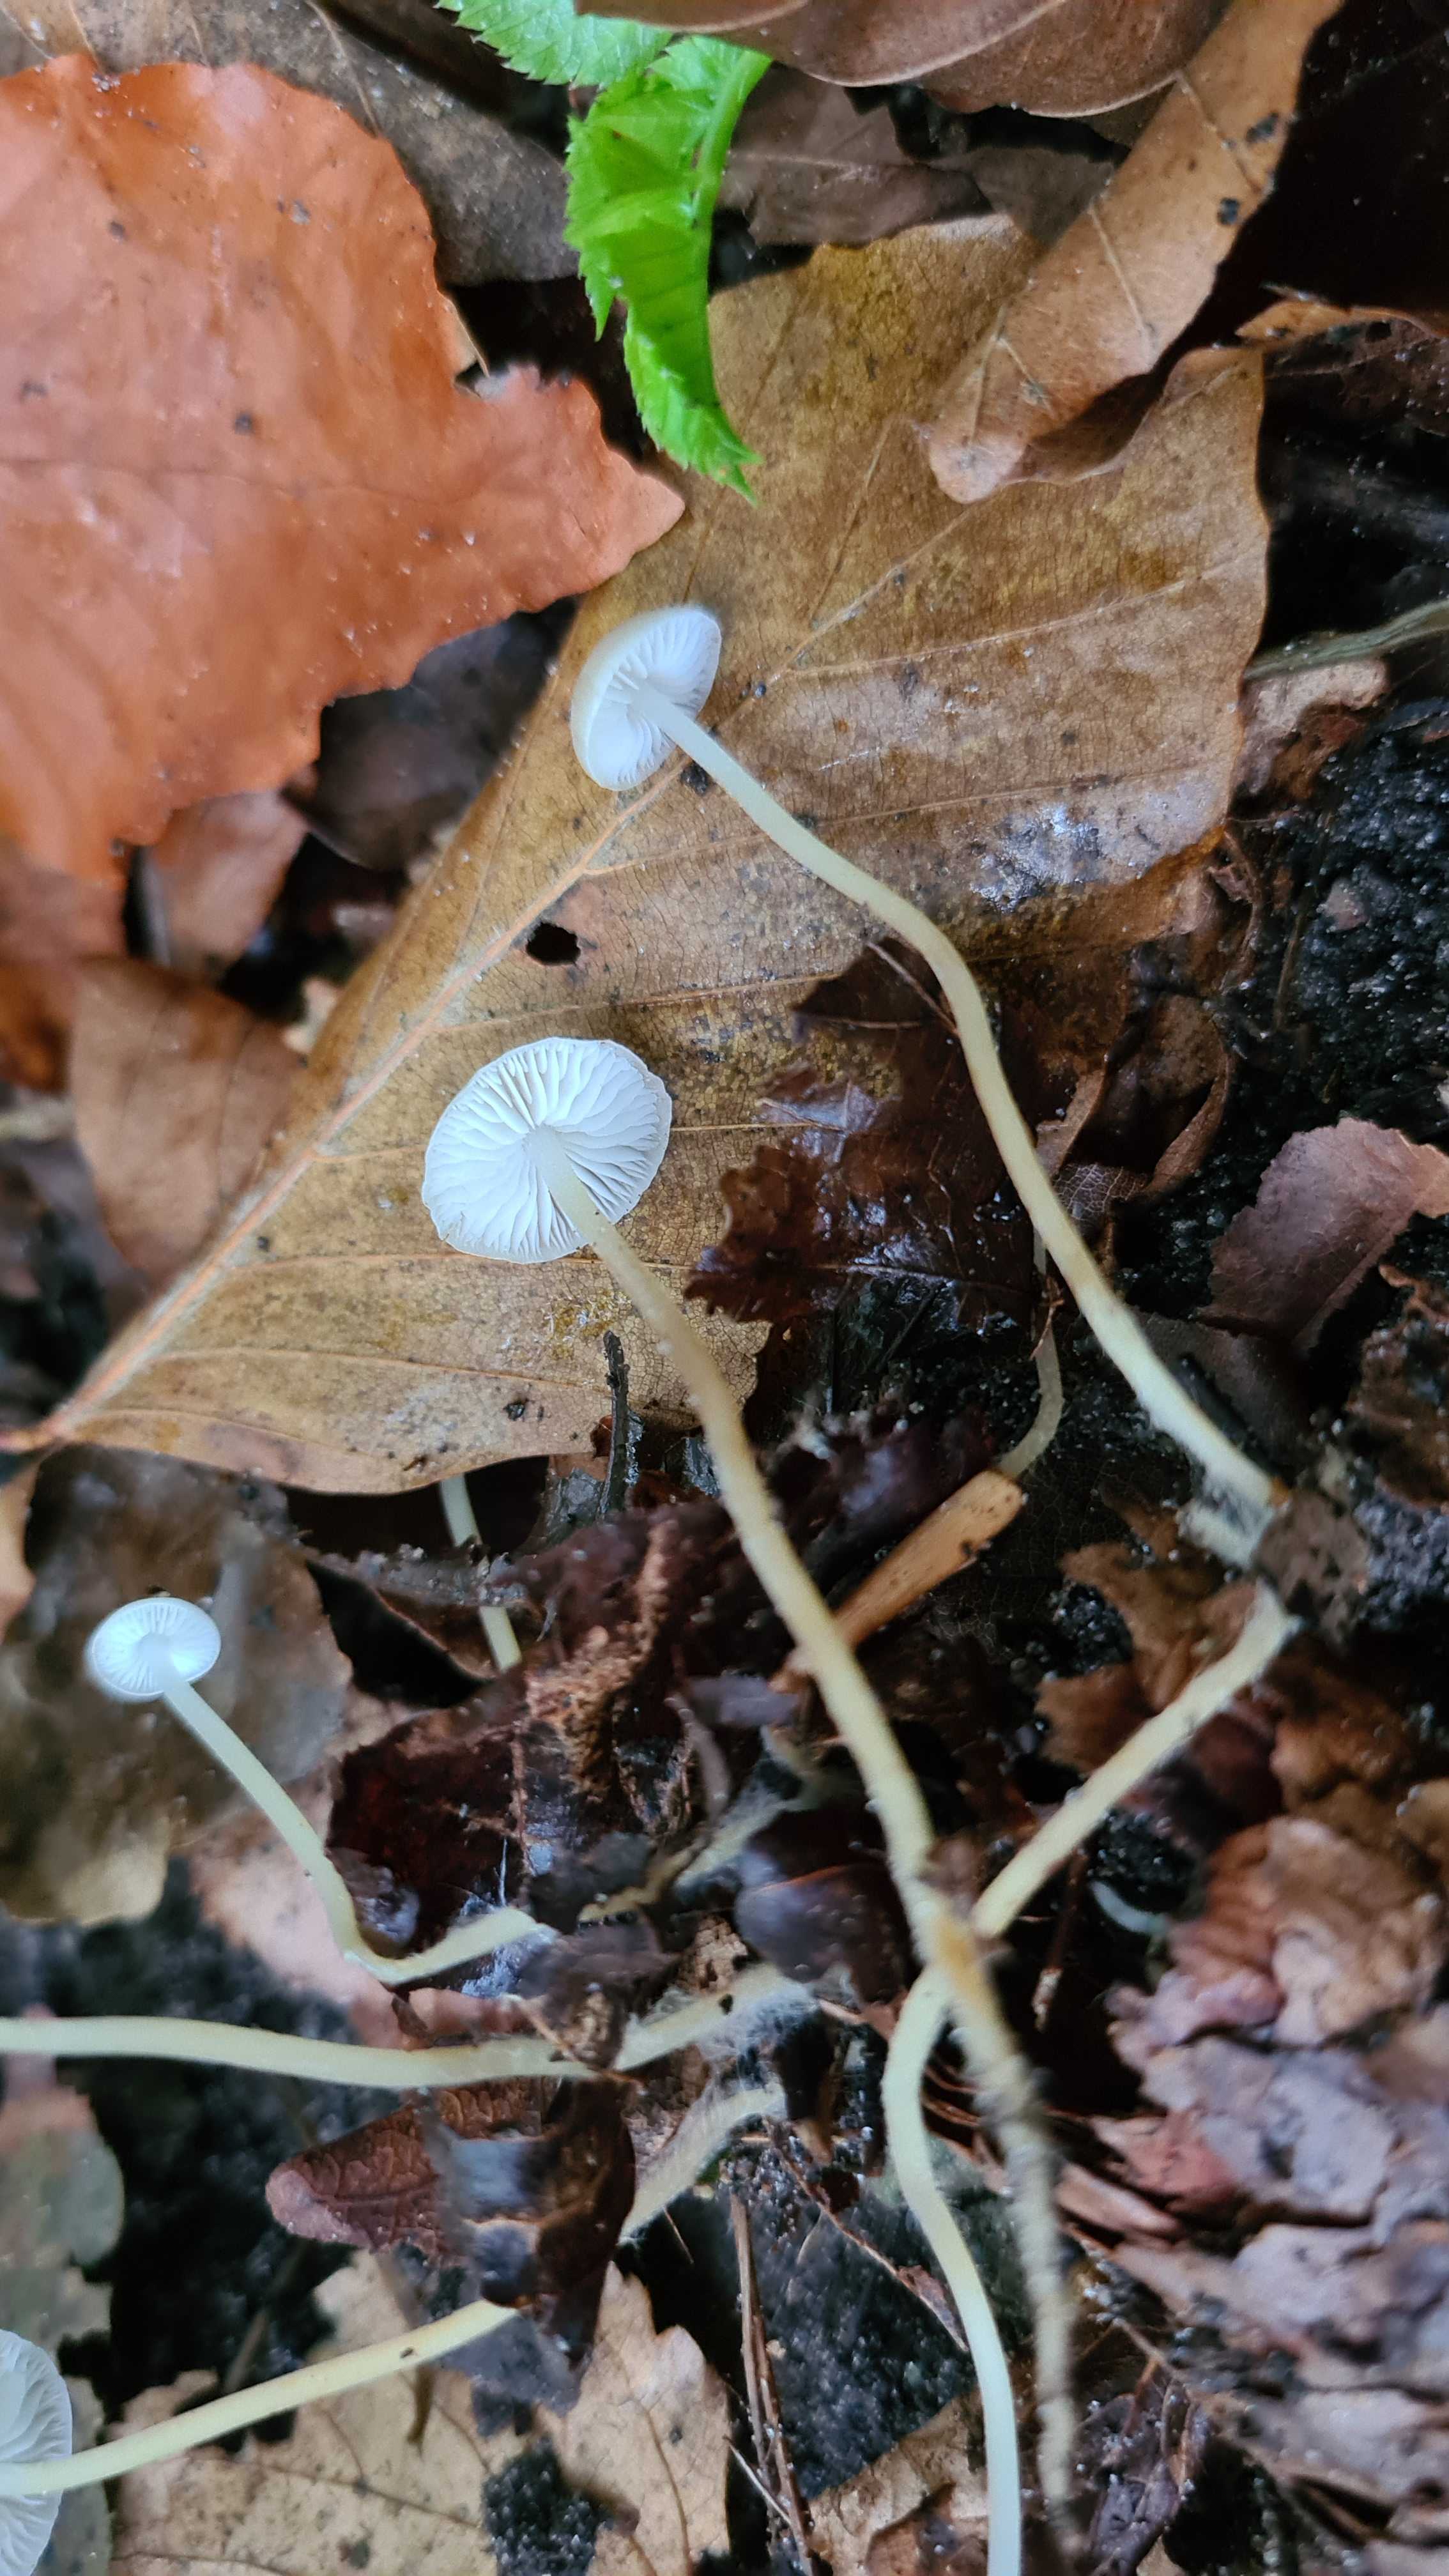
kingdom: Fungi
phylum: Basidiomycota
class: Agaricomycetes
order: Agaricales
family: Physalacriaceae
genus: Strobilurus
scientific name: Strobilurus esculentus
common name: gran-koglehat
